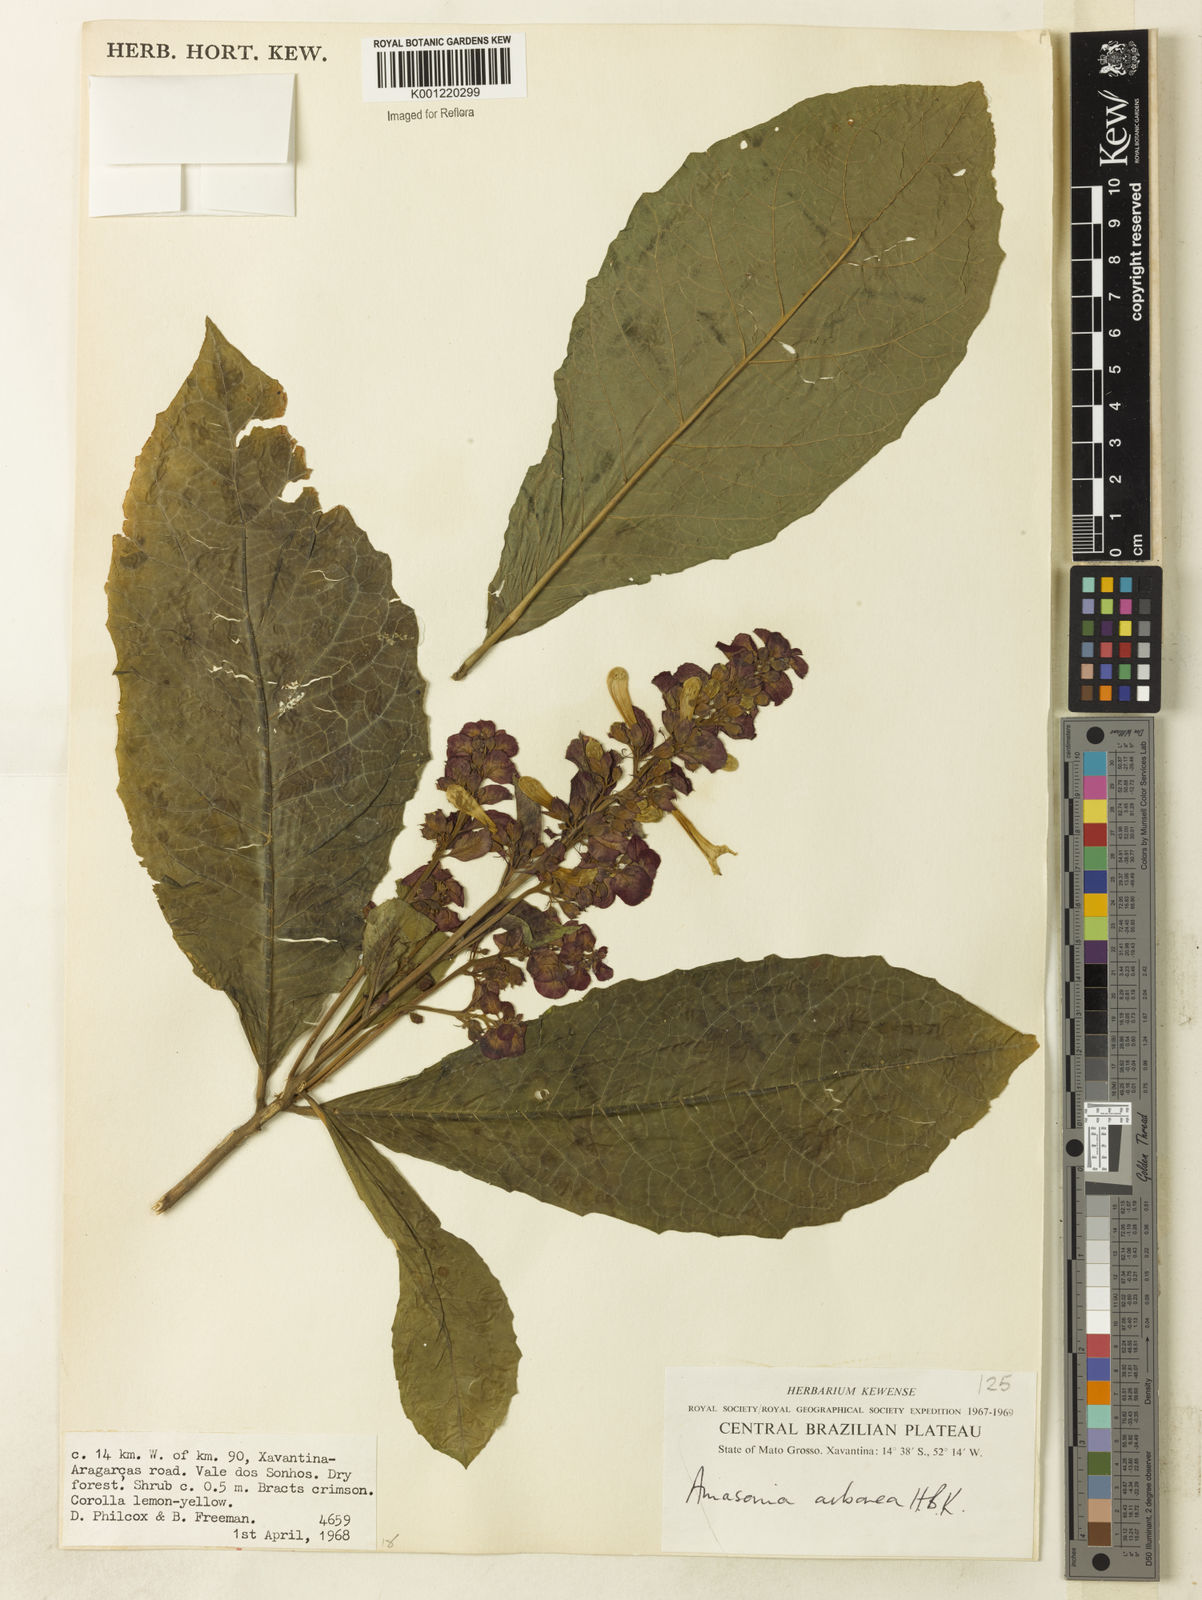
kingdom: Plantae
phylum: Tracheophyta
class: Magnoliopsida
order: Lamiales
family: Lamiaceae
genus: Amasonia
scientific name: Amasonia arborea
